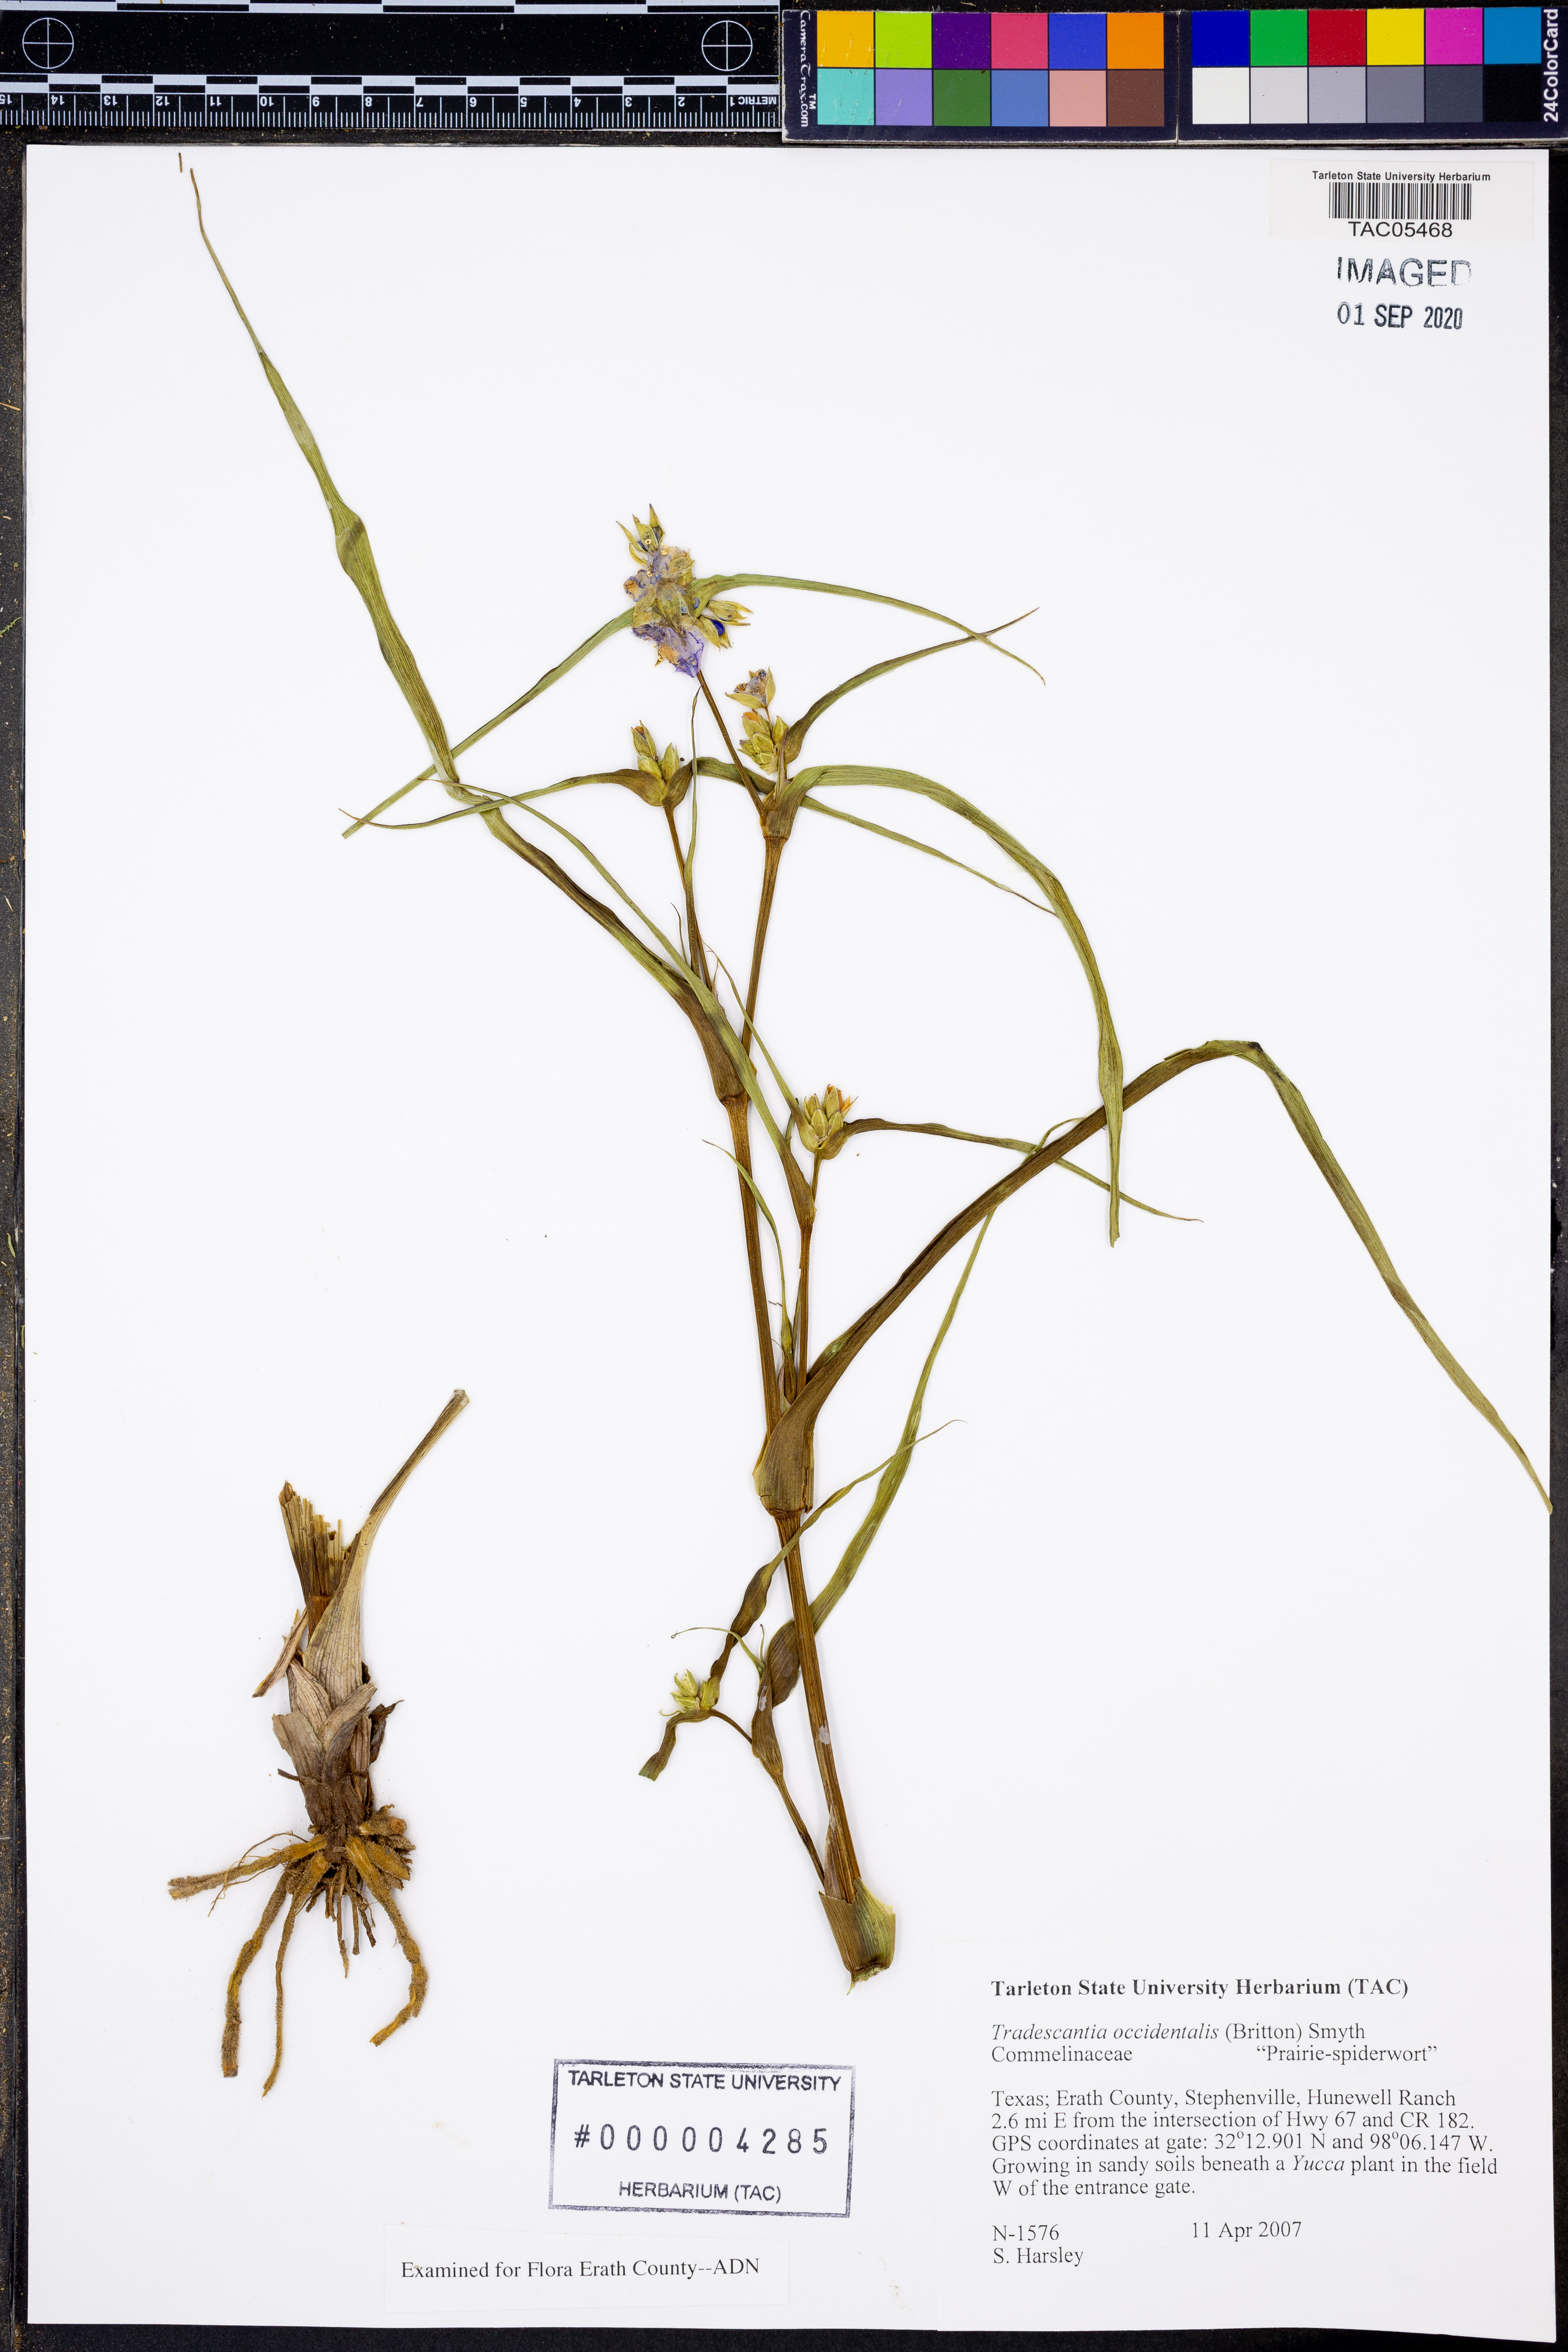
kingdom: Plantae
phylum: Tracheophyta
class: Liliopsida
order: Commelinales
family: Commelinaceae
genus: Tradescantia
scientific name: Tradescantia occidentalis
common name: Prairie spiderwort
